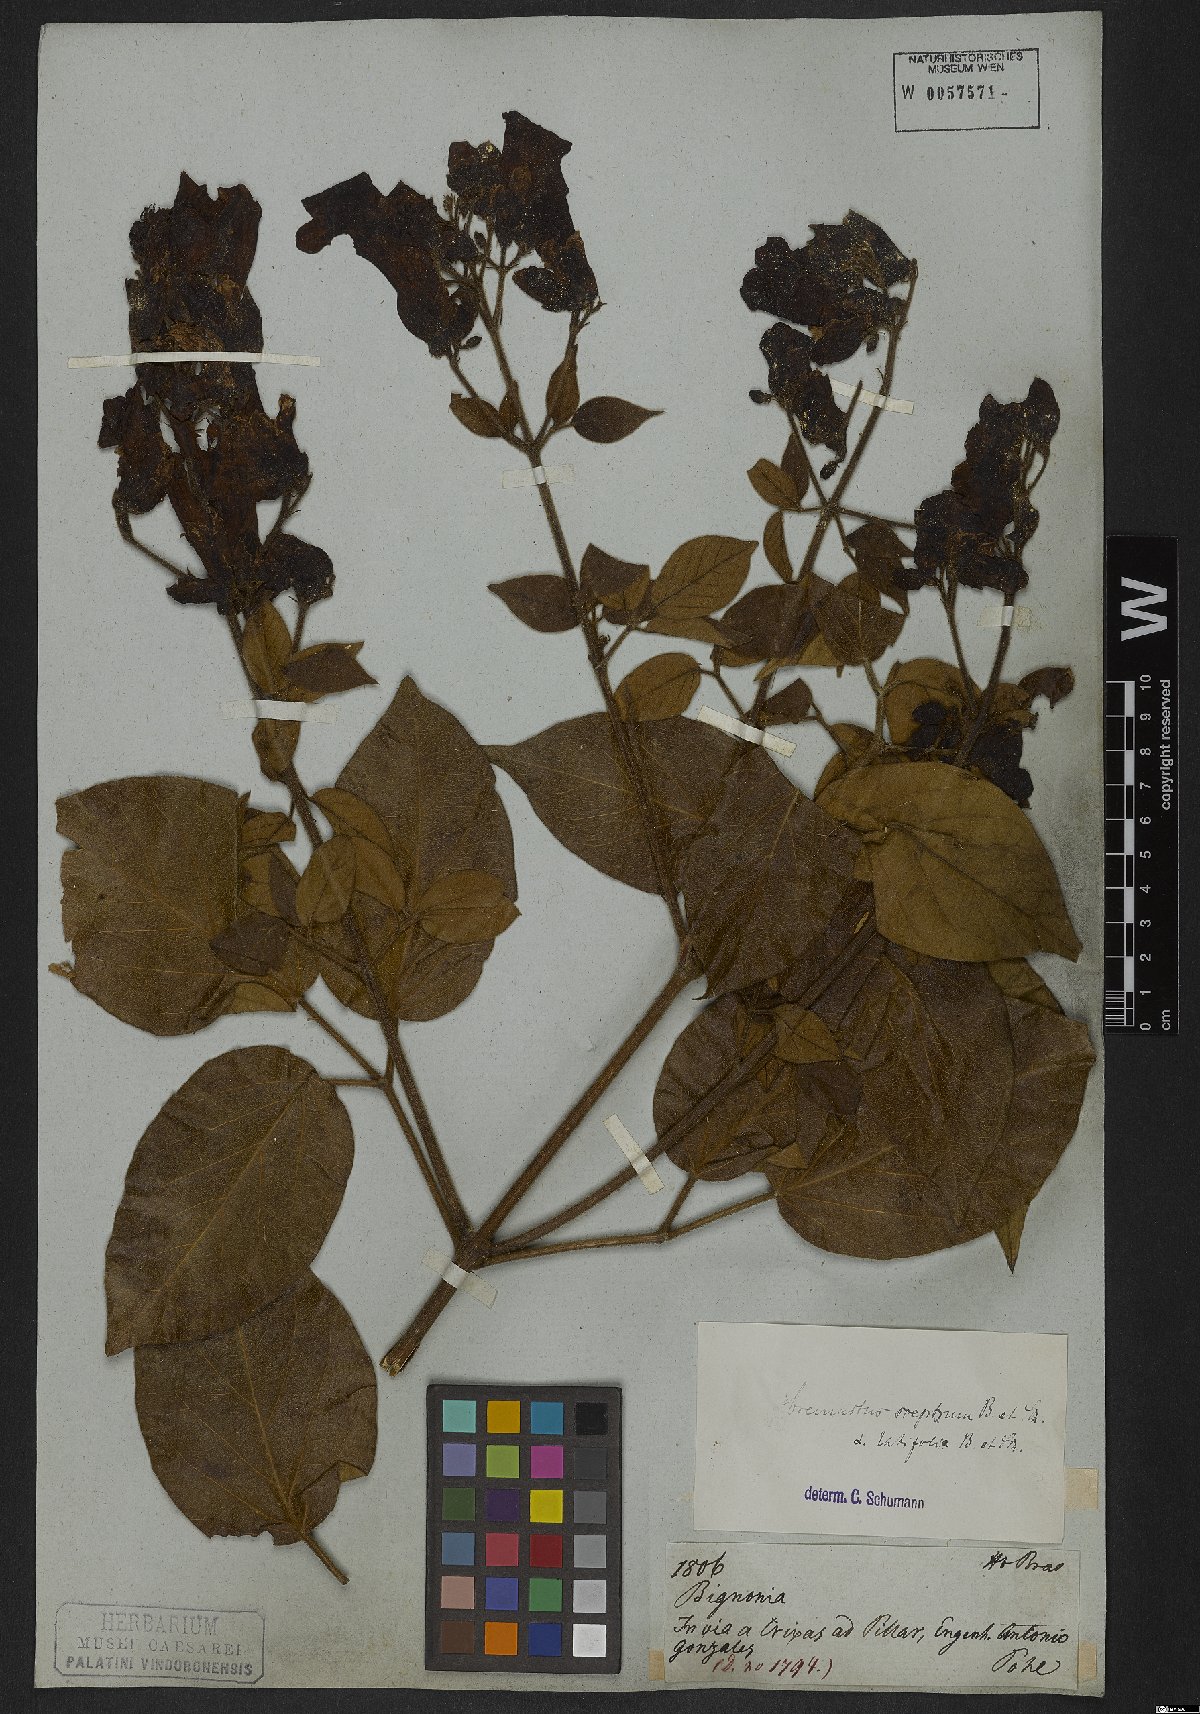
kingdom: Plantae
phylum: Tracheophyta
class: Magnoliopsida
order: Lamiales
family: Bignoniaceae
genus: Cuspidaria
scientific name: Cuspidaria sceptrum
